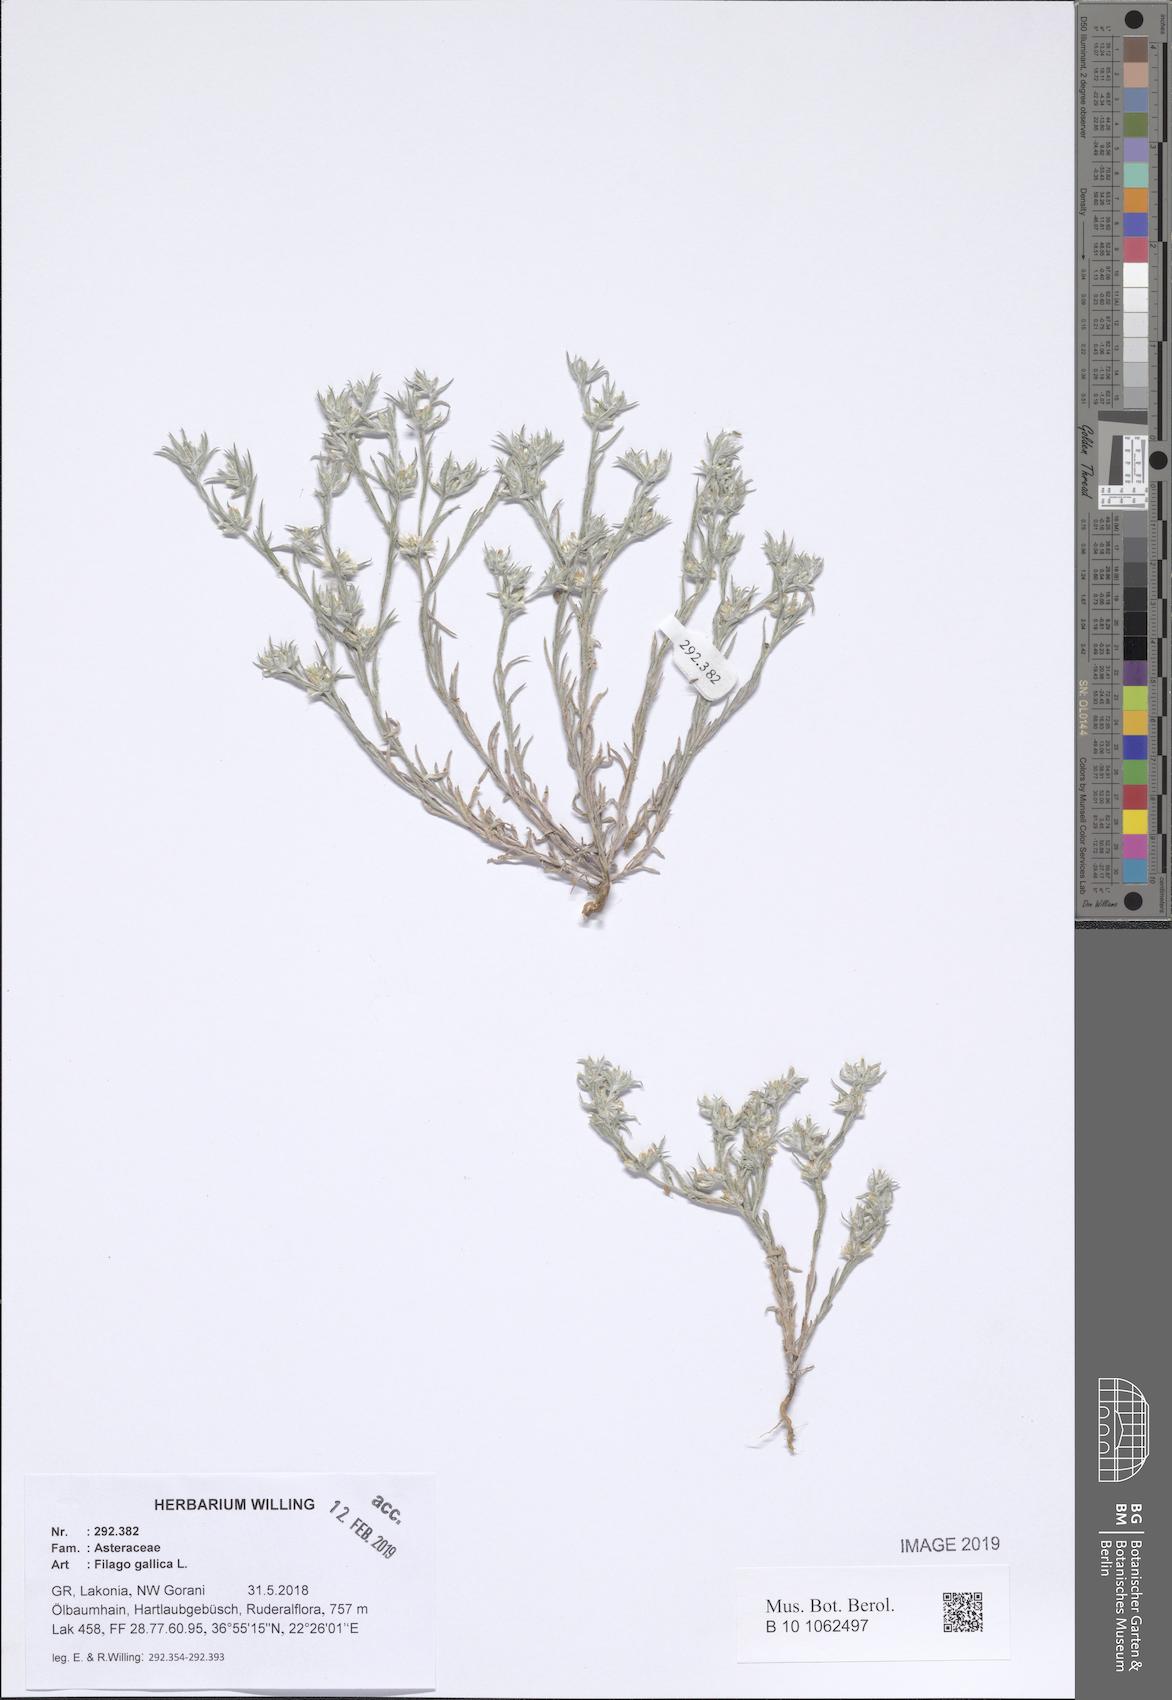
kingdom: Plantae
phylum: Tracheophyta
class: Magnoliopsida
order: Asterales
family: Asteraceae
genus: Logfia
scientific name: Logfia gallica
